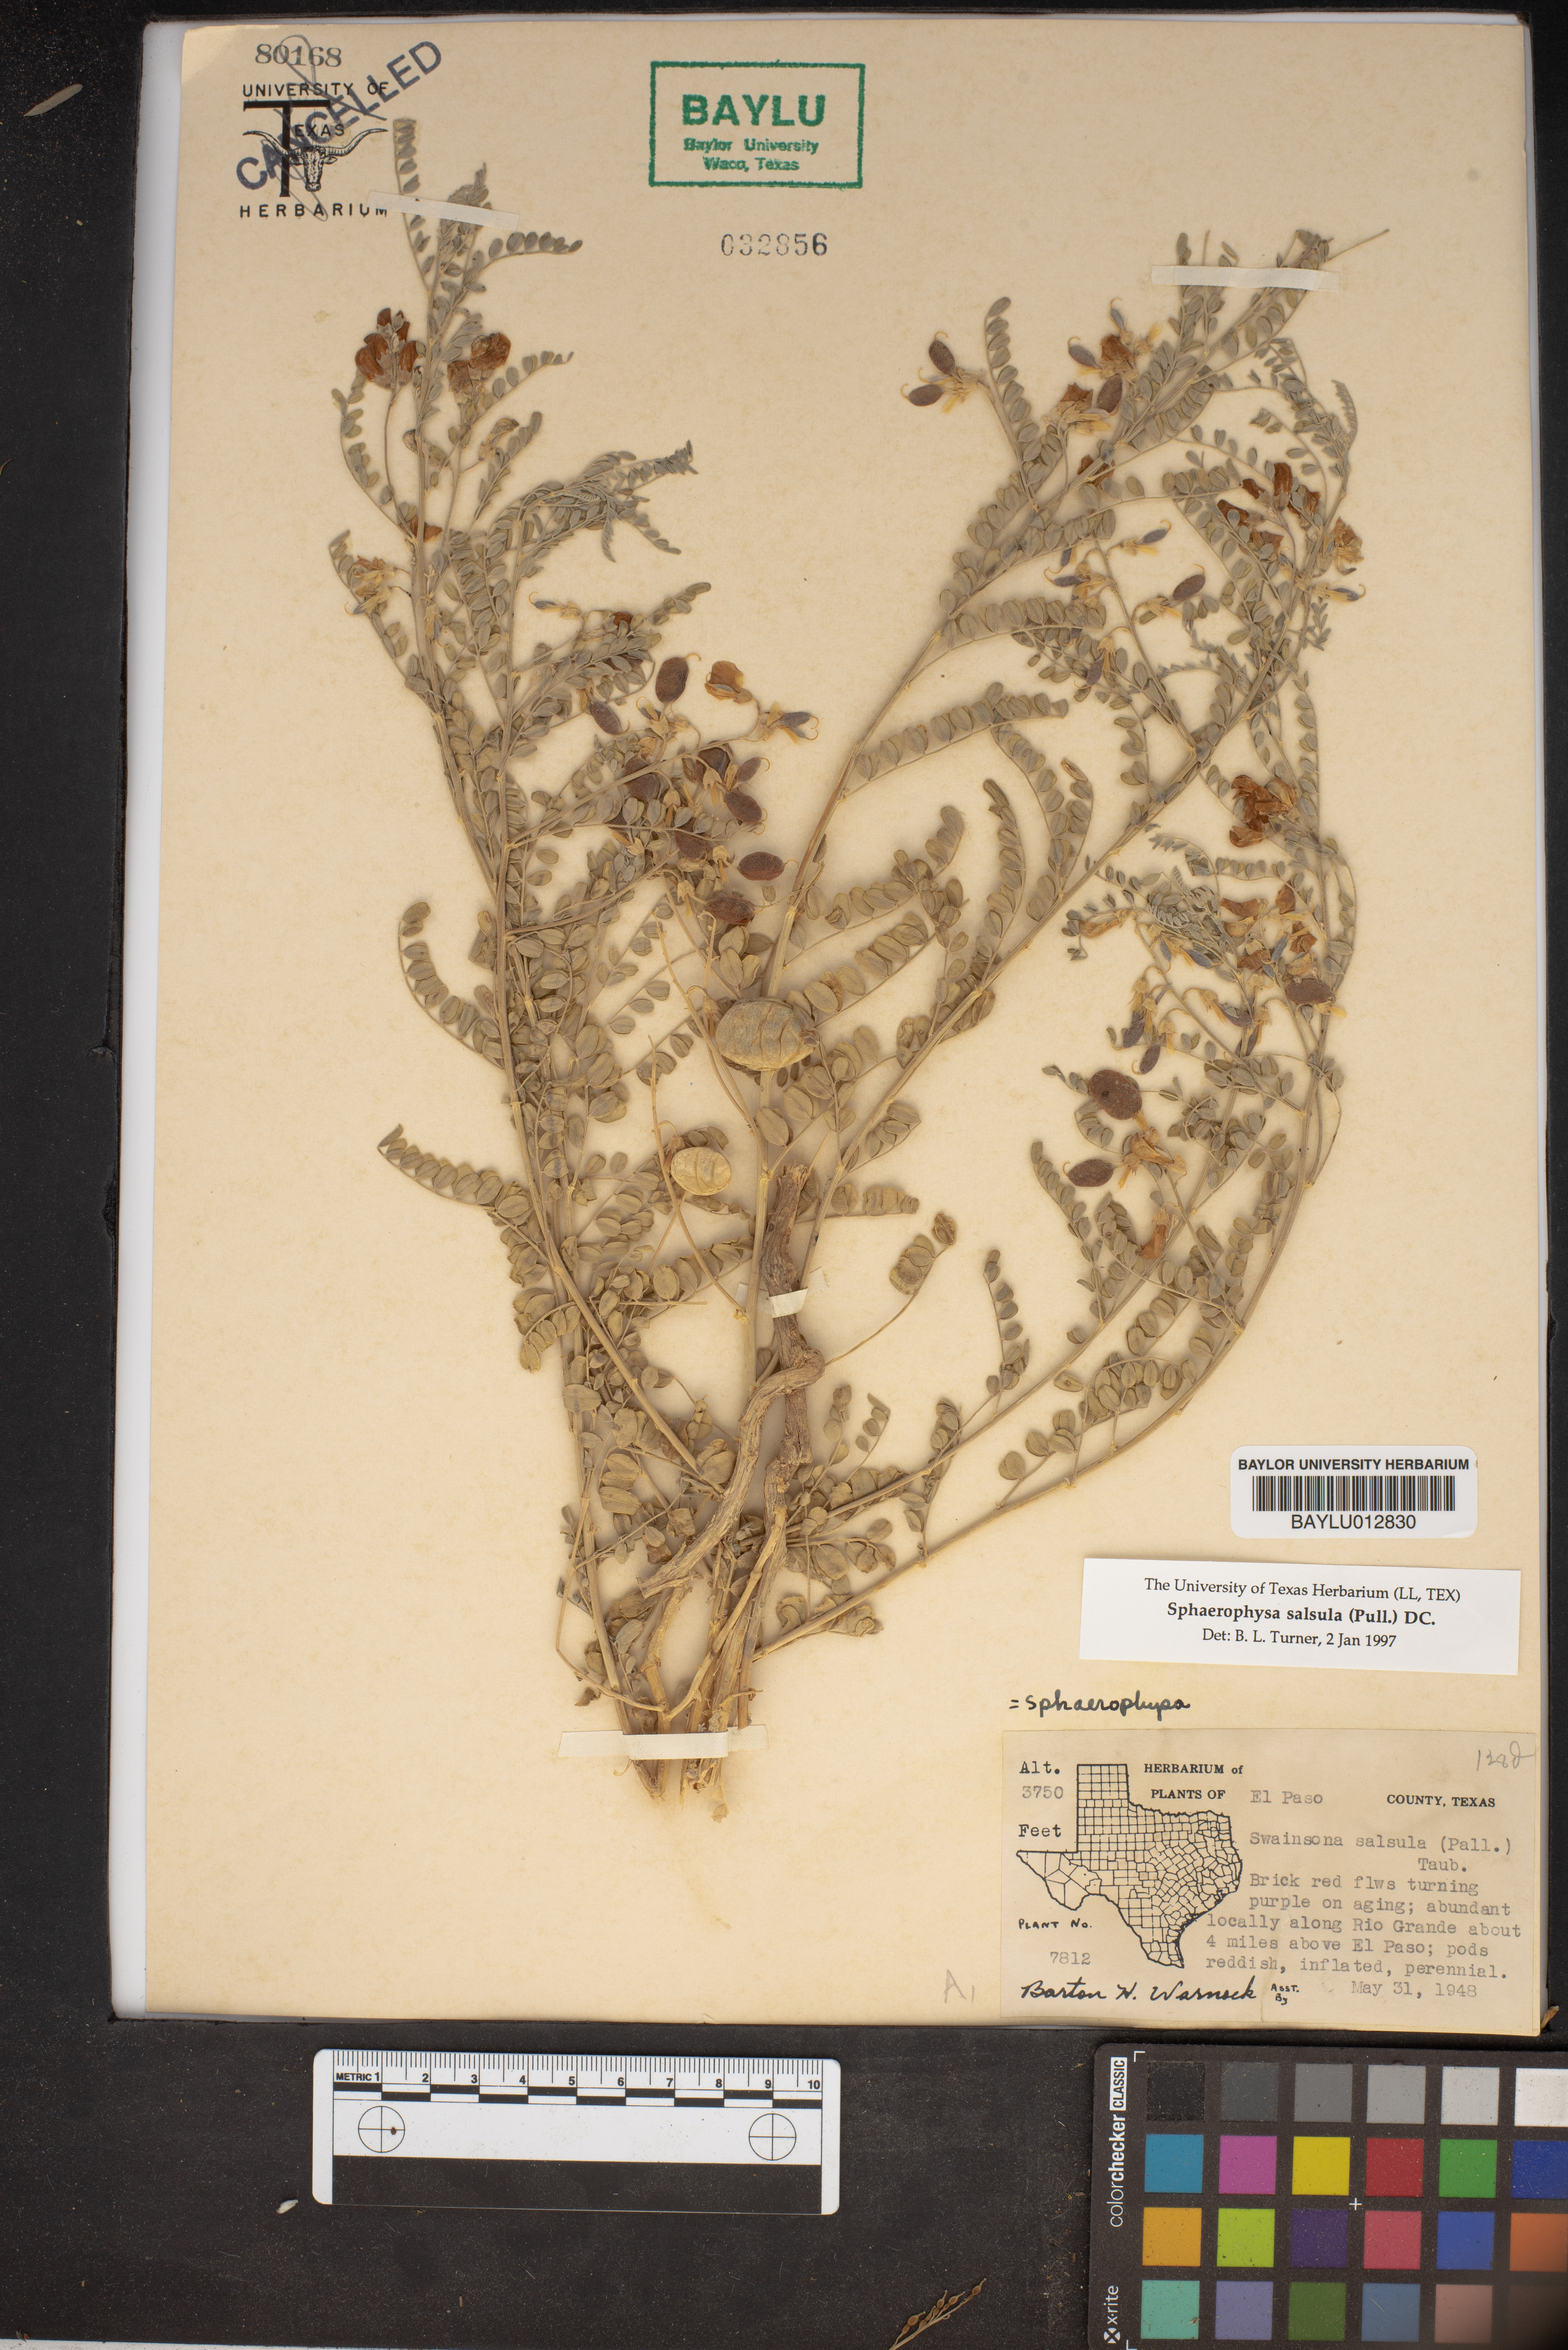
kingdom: Plantae
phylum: Tracheophyta
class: Magnoliopsida
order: Fabales
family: Fabaceae
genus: Sphaerophysa
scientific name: Sphaerophysa salsula
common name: Alkali swainsonpea
